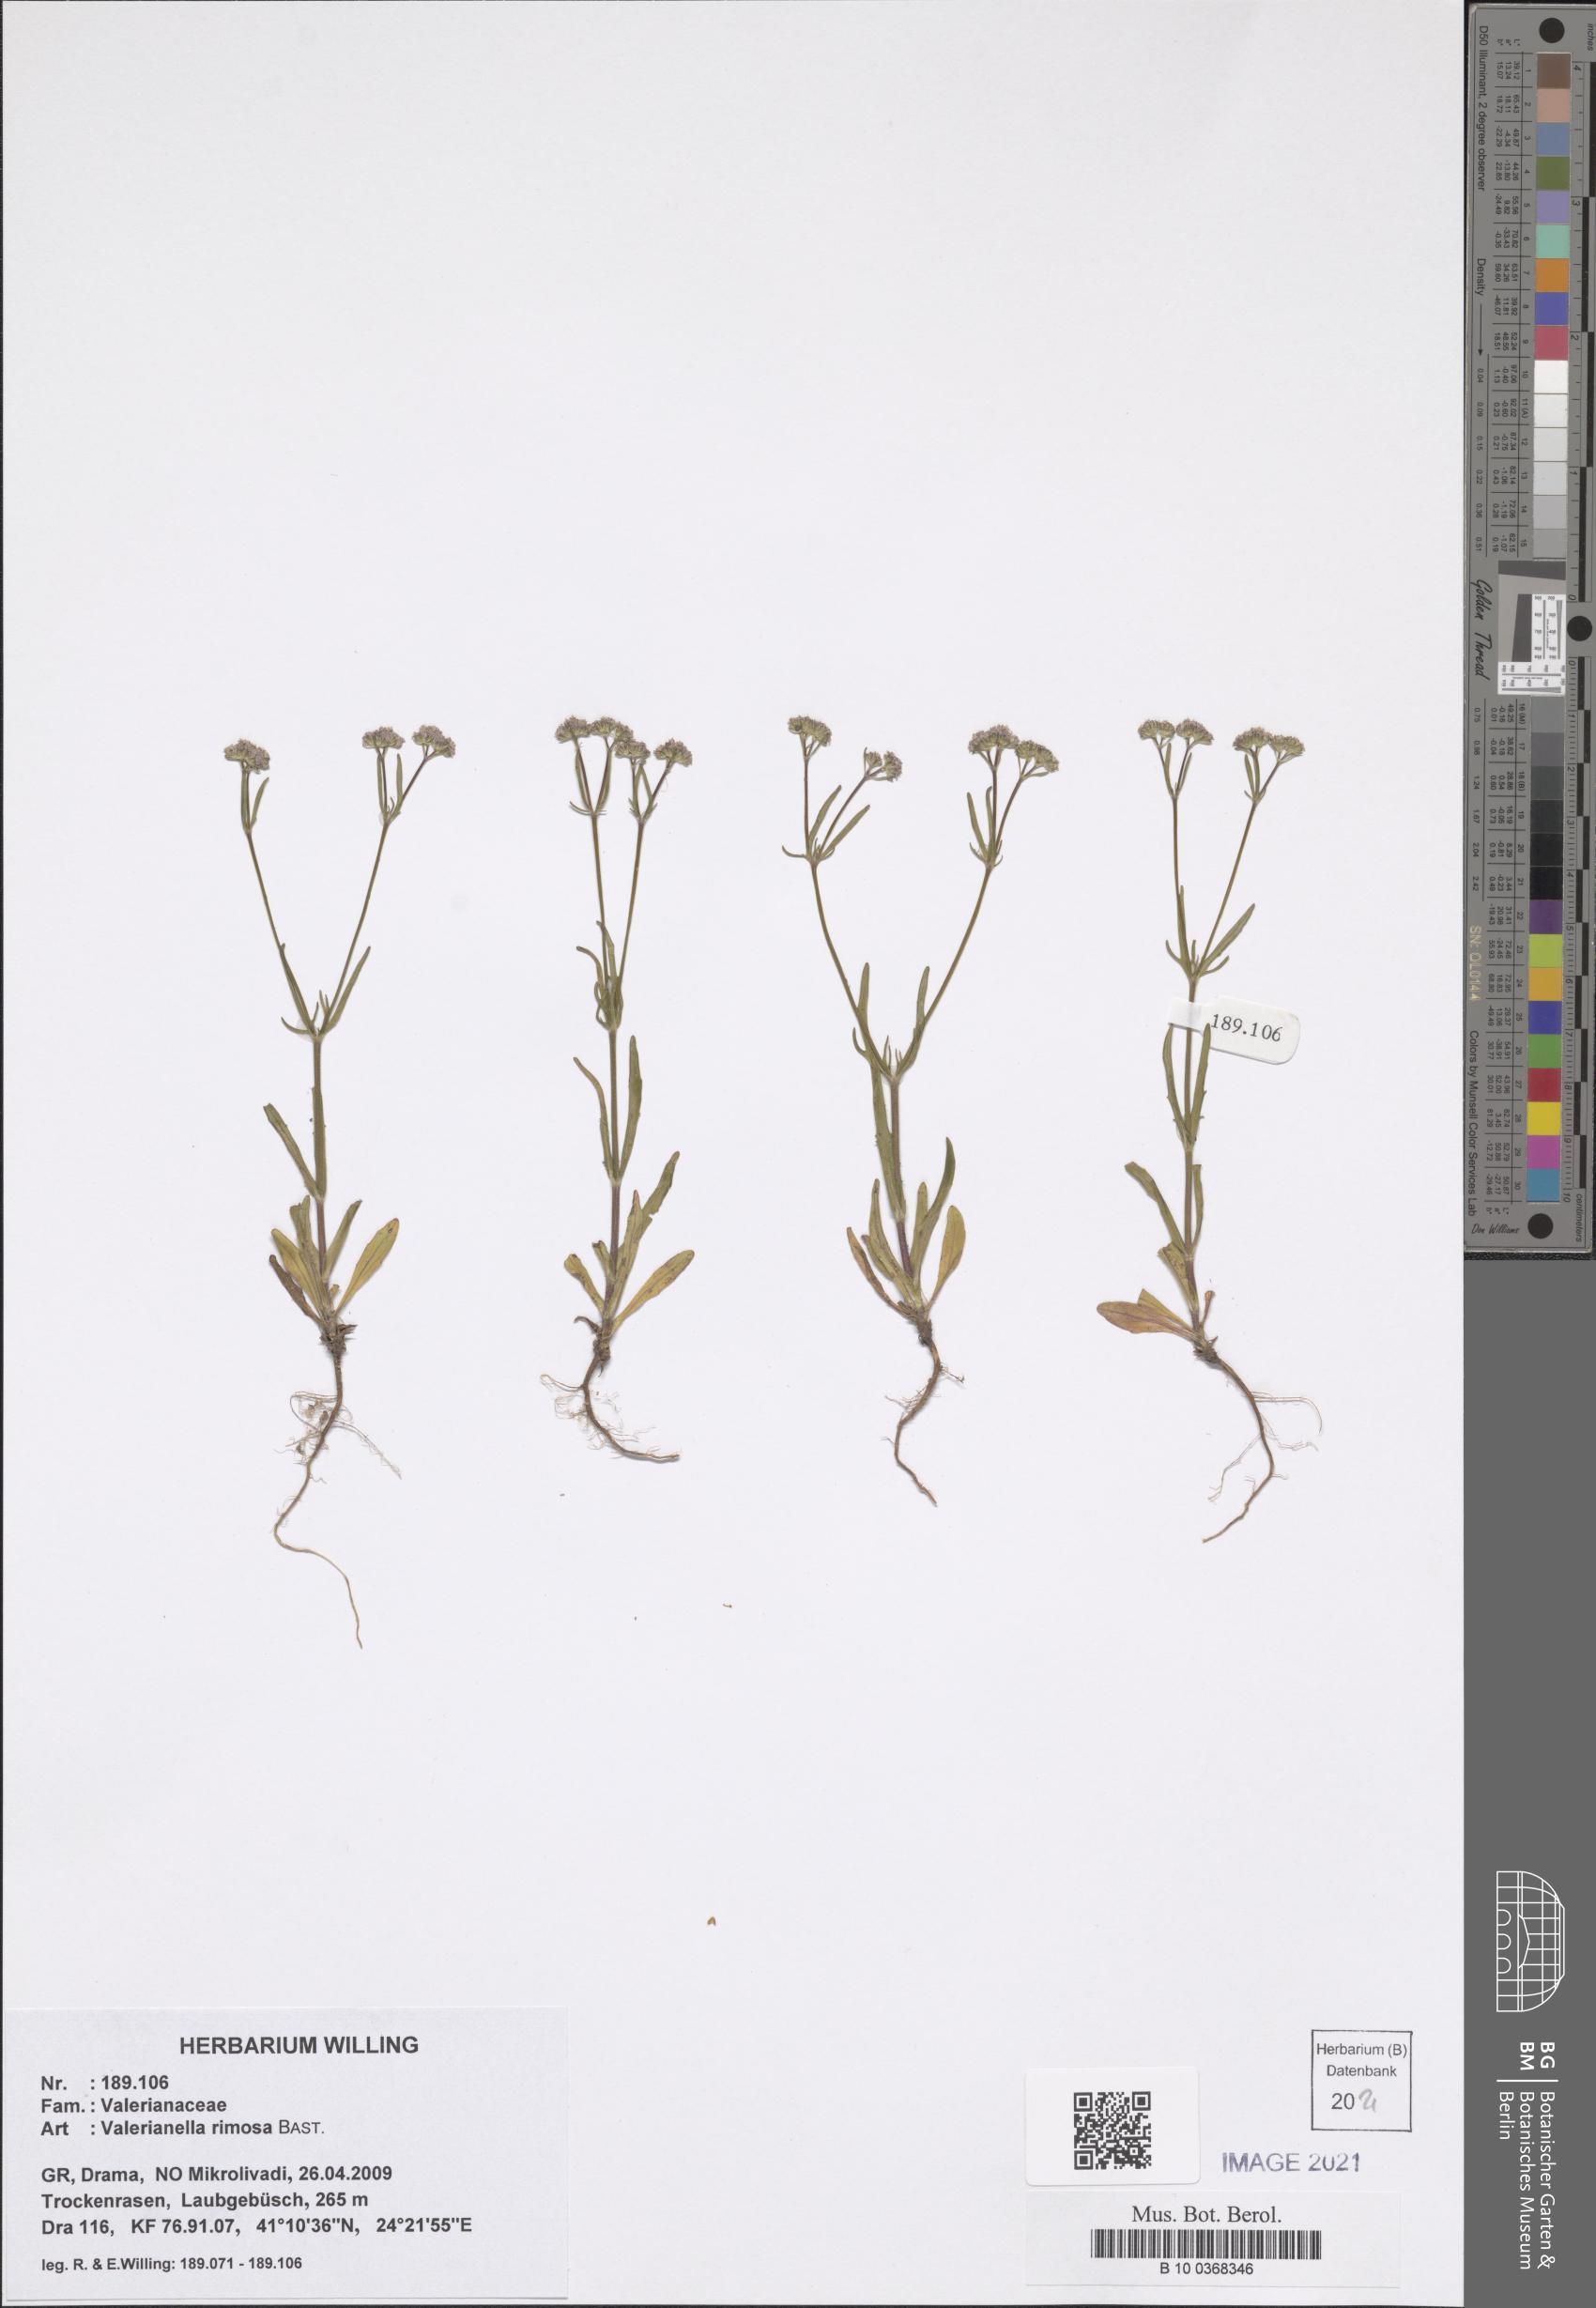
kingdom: Plantae
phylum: Tracheophyta
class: Magnoliopsida
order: Dipsacales
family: Caprifoliaceae
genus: Valerianella
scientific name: Valerianella rimosa
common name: Broad-fruited cornsalad
